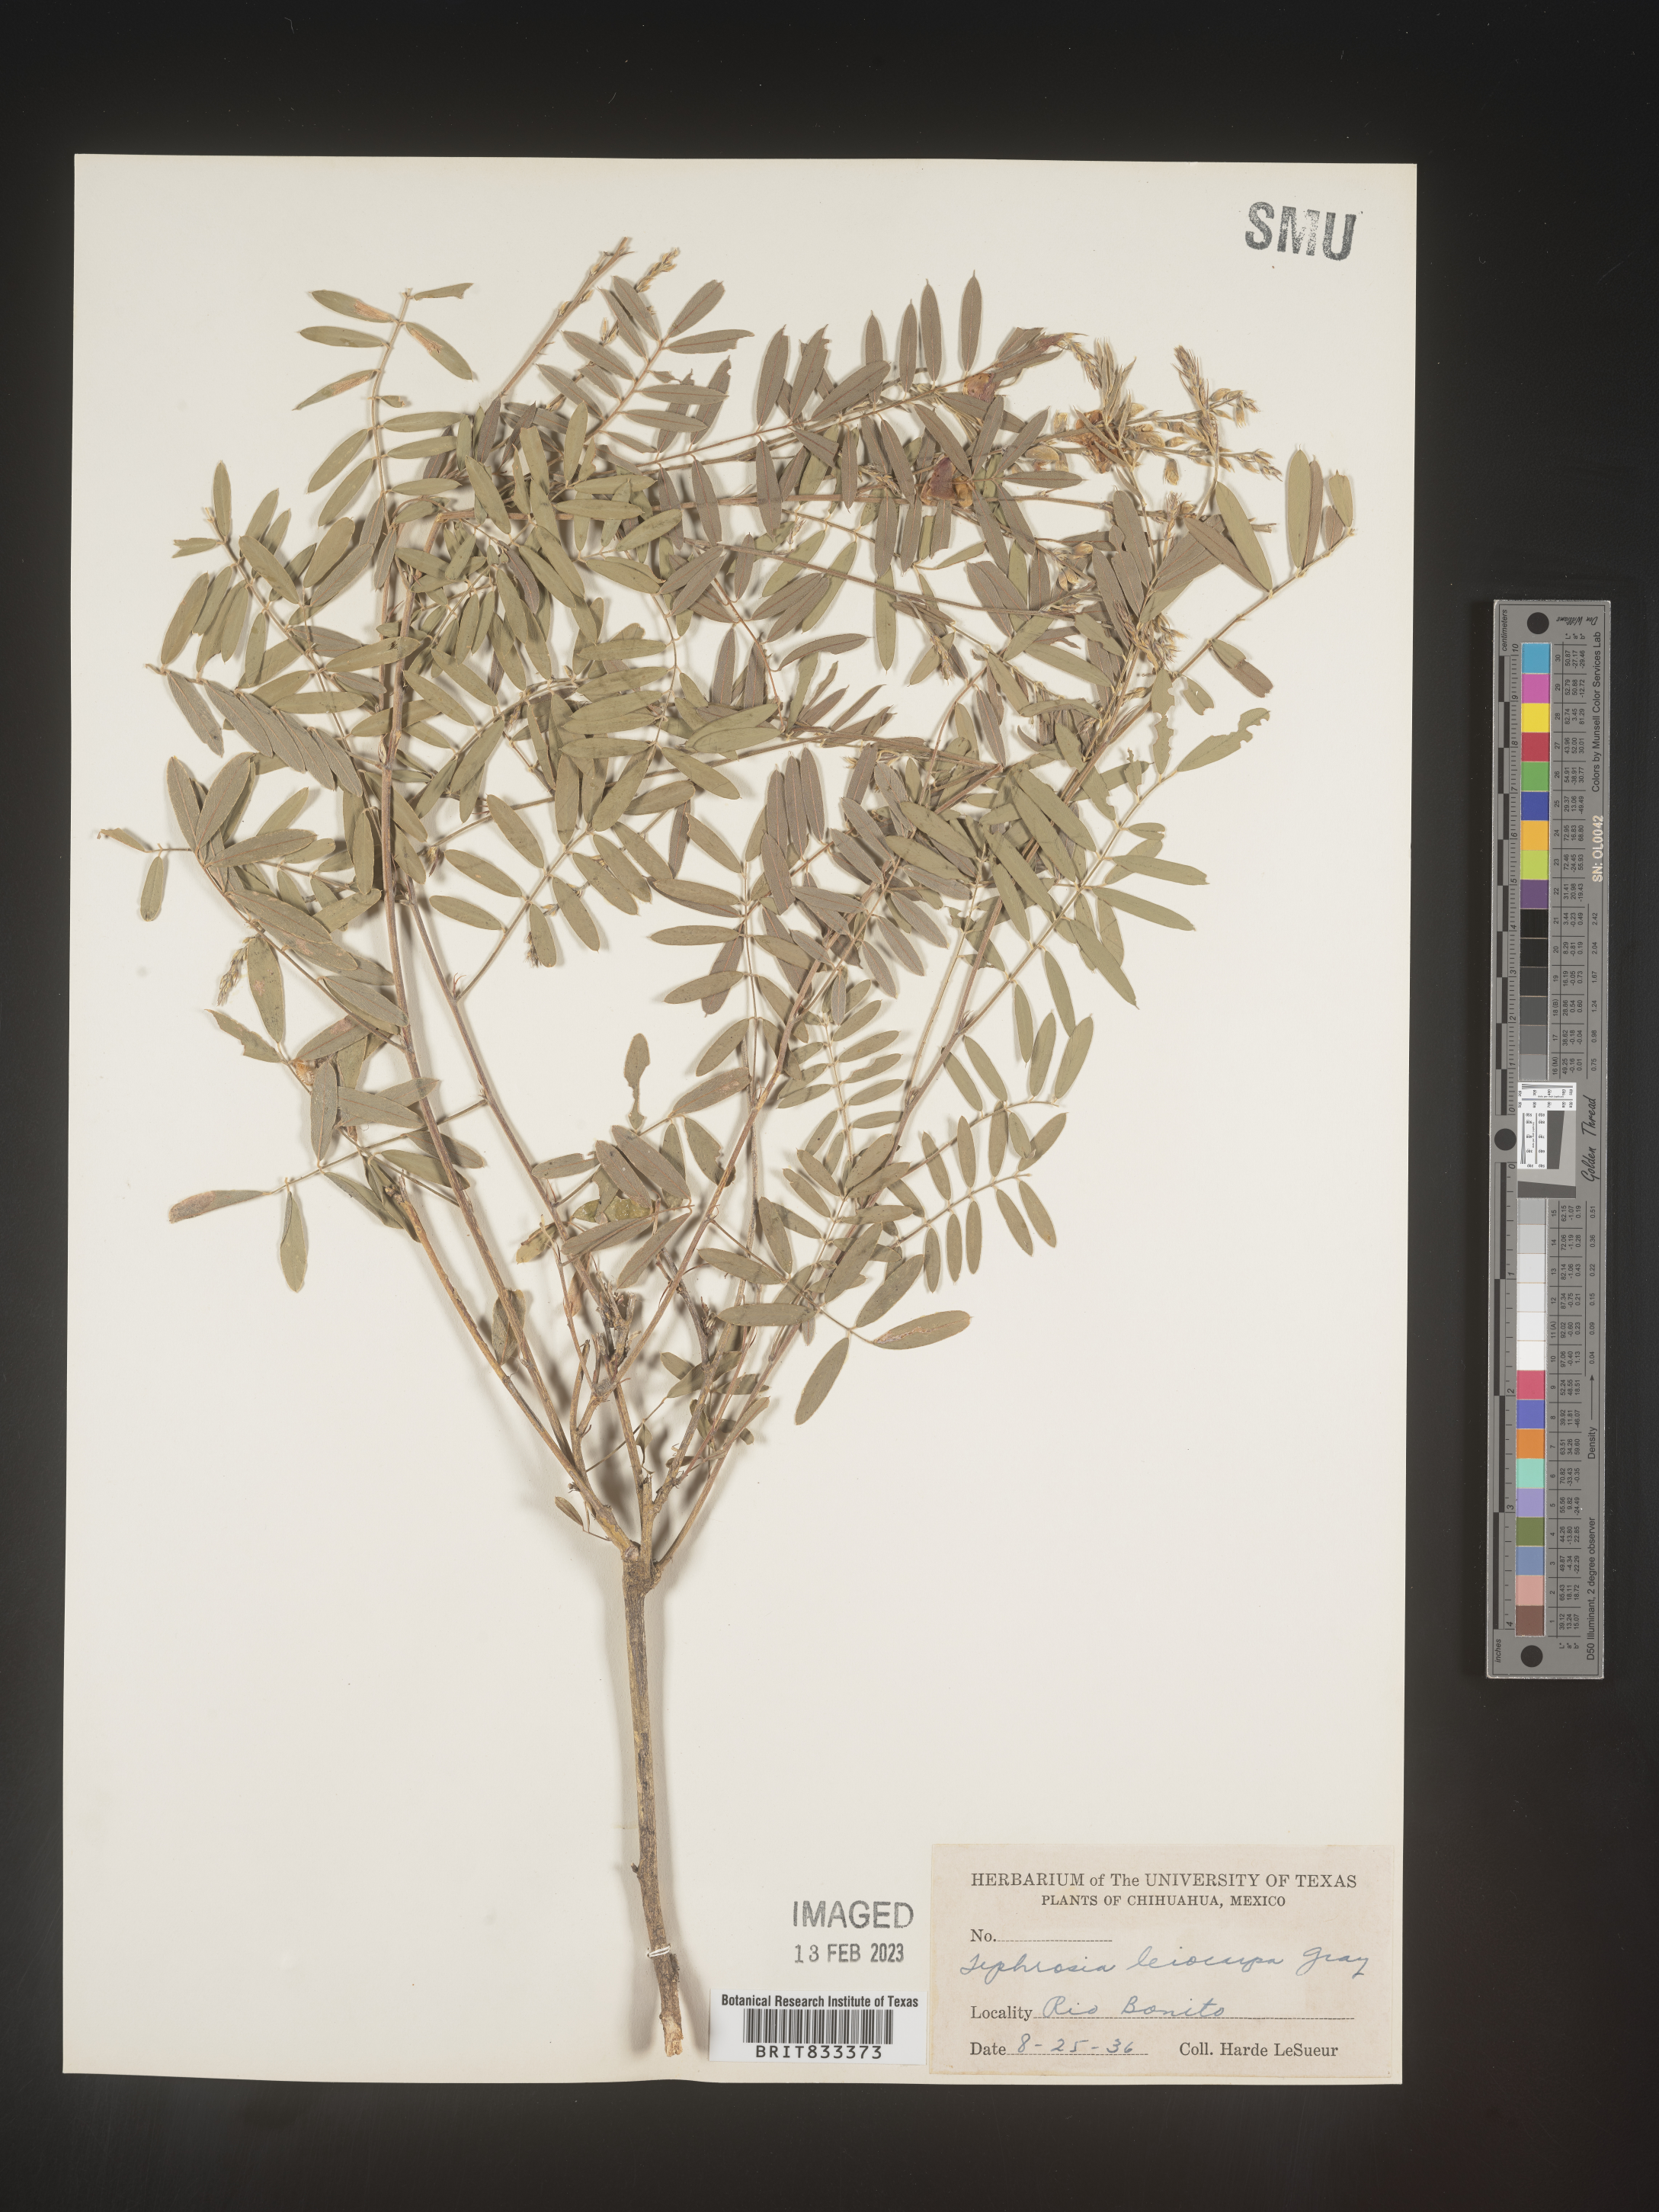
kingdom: Plantae
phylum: Tracheophyta
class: Magnoliopsida
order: Fabales
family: Fabaceae
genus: Tephrosia
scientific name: Tephrosia
